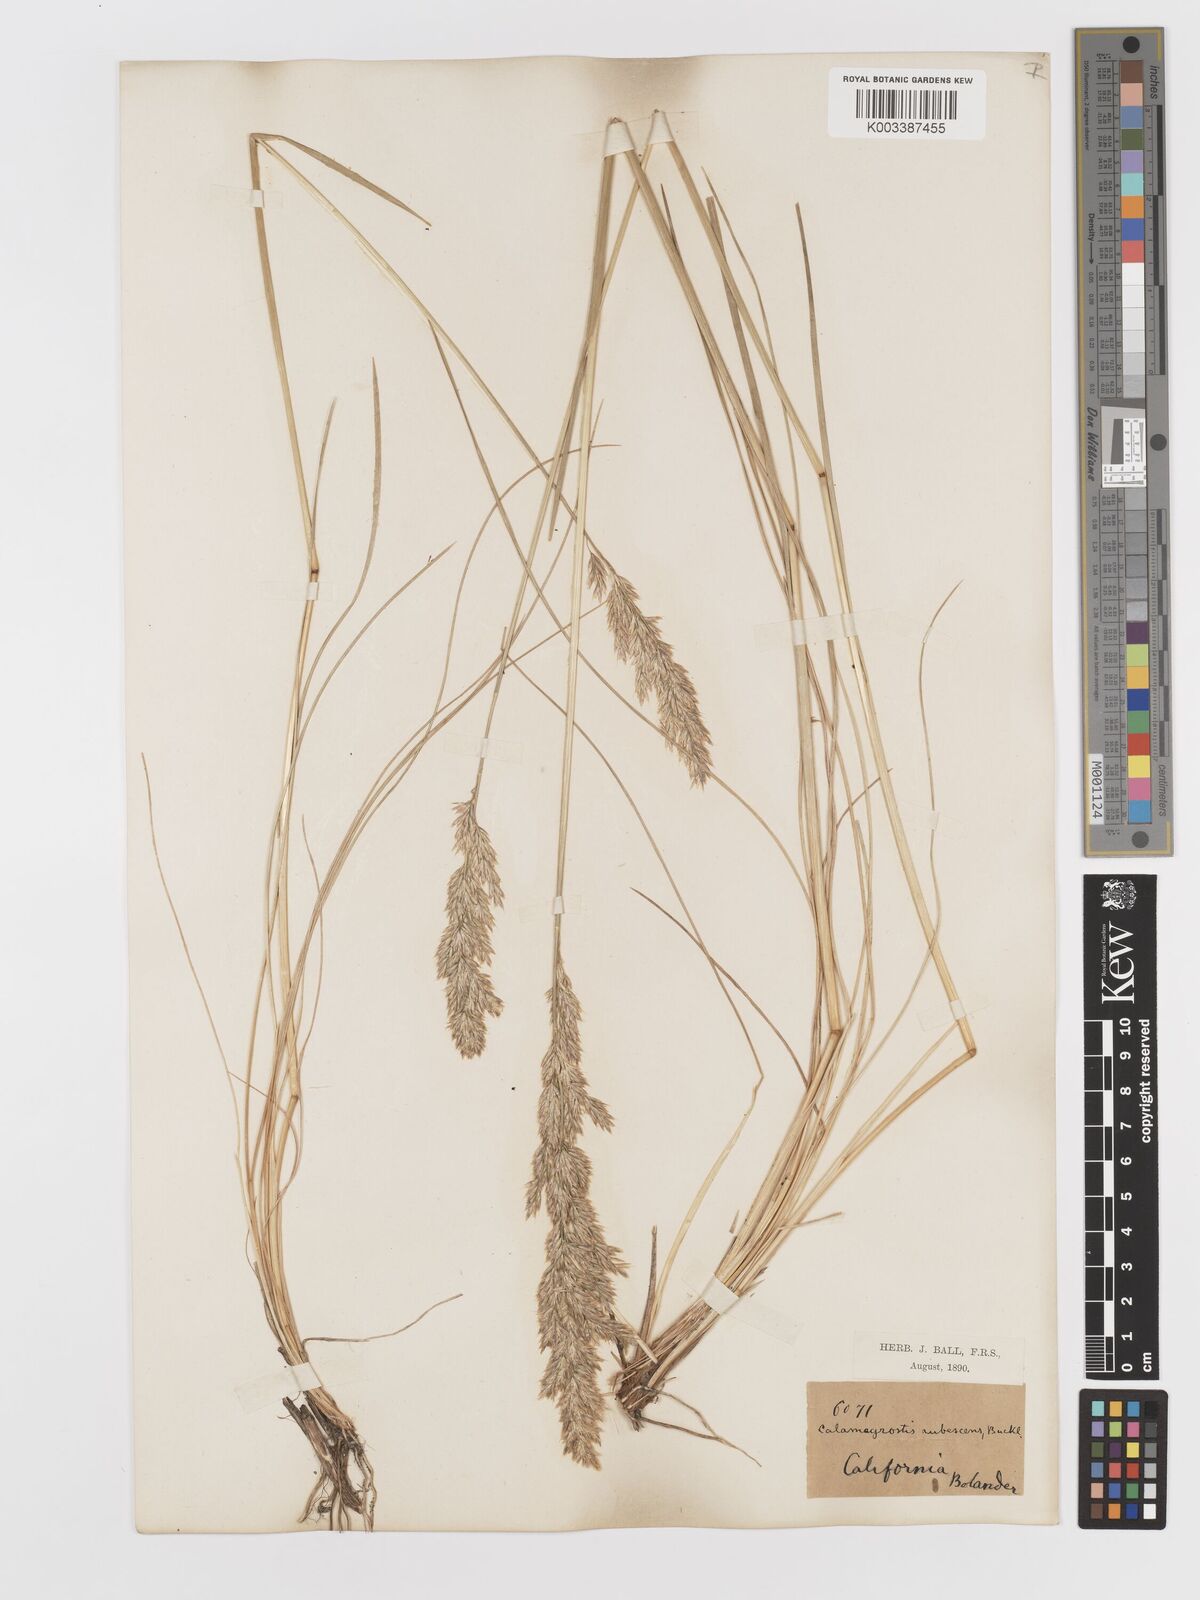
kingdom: Plantae
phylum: Tracheophyta
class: Liliopsida
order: Poales
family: Poaceae
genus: Deschampsia
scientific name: Deschampsia
